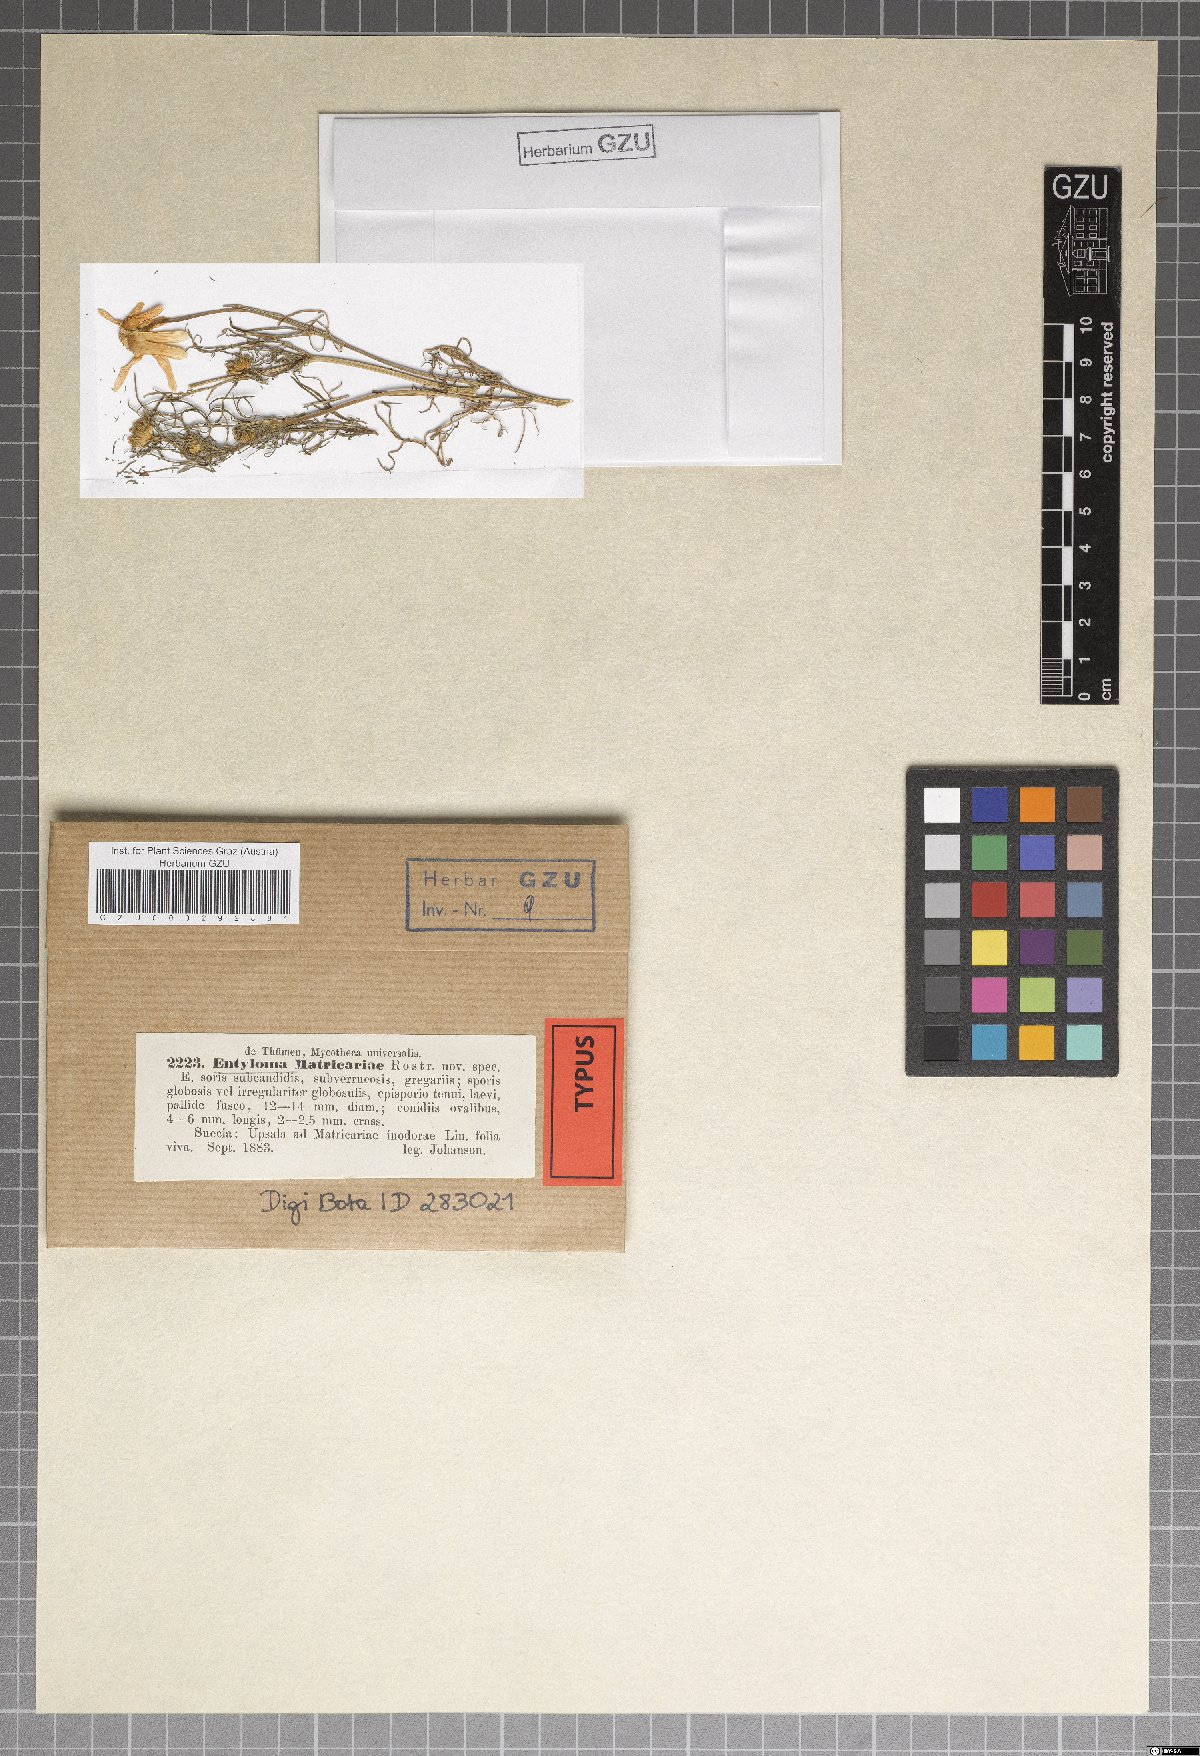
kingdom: Fungi
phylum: Basidiomycota
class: Exobasidiomycetes
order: Entylomatales
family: Entylomataceae
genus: Entyloma
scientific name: Entyloma matricariae
